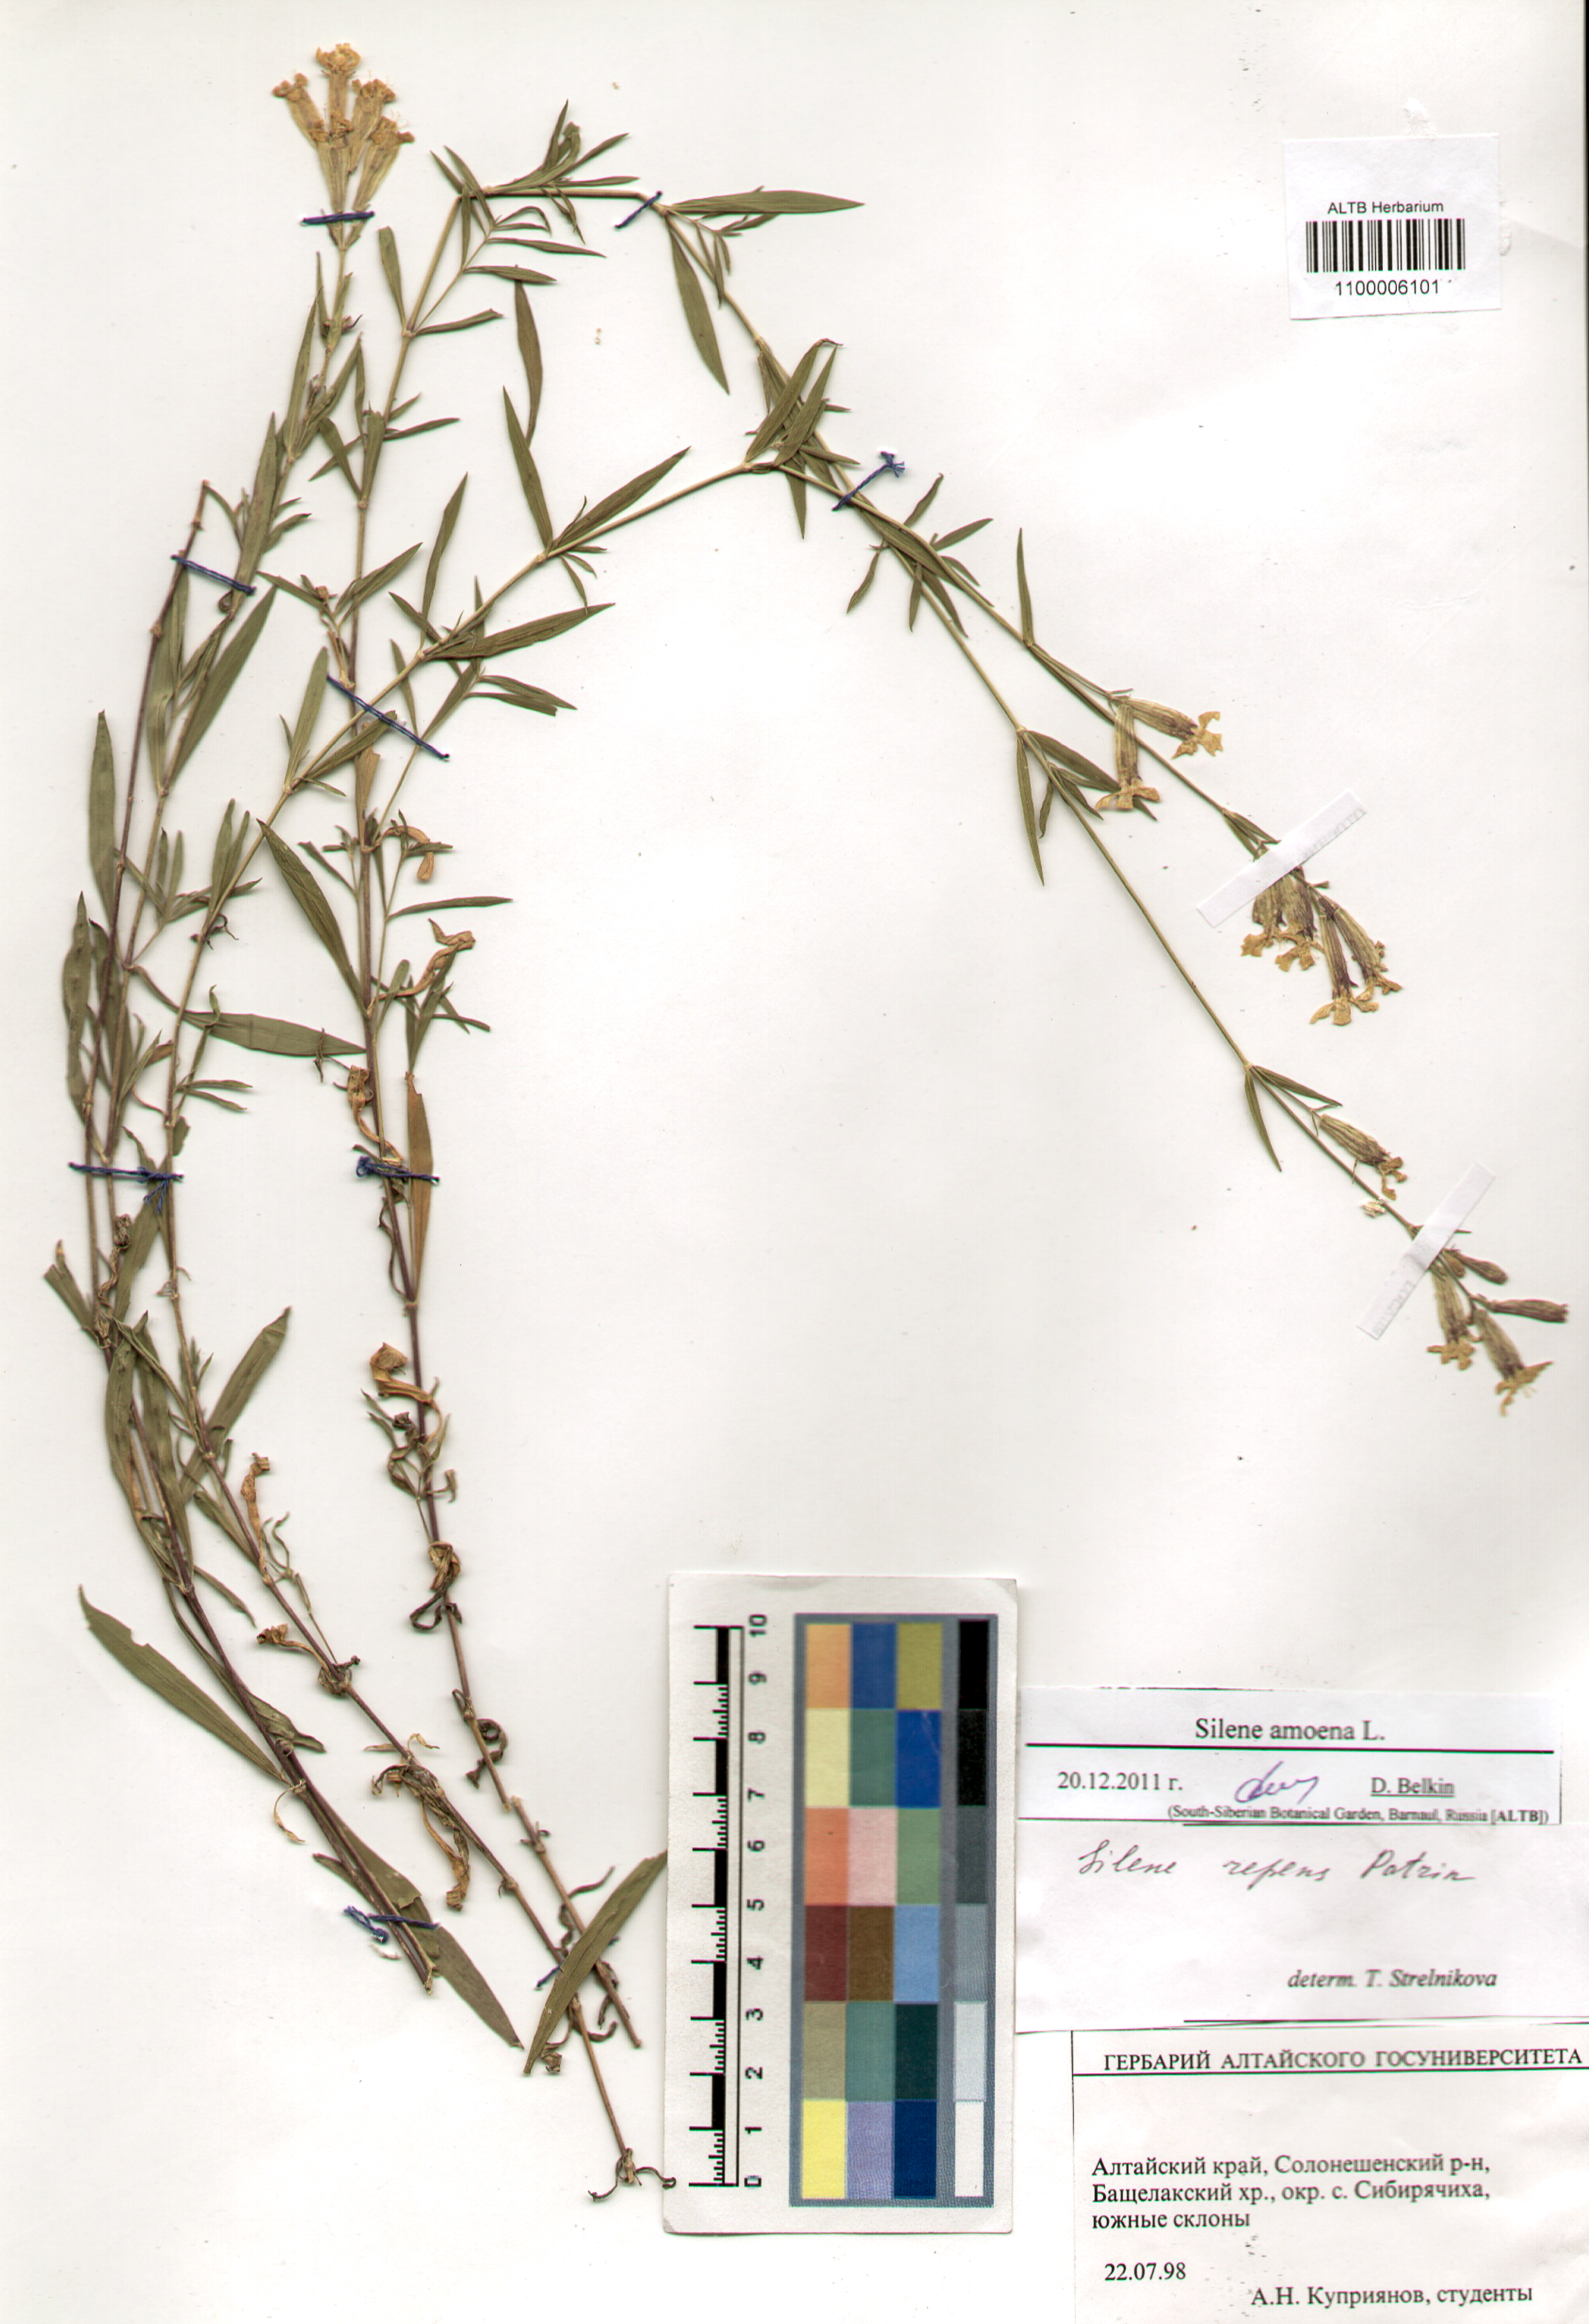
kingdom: Plantae
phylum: Tracheophyta
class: Magnoliopsida
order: Caryophyllales
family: Caryophyllaceae
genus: Silene
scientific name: Silene amoena
